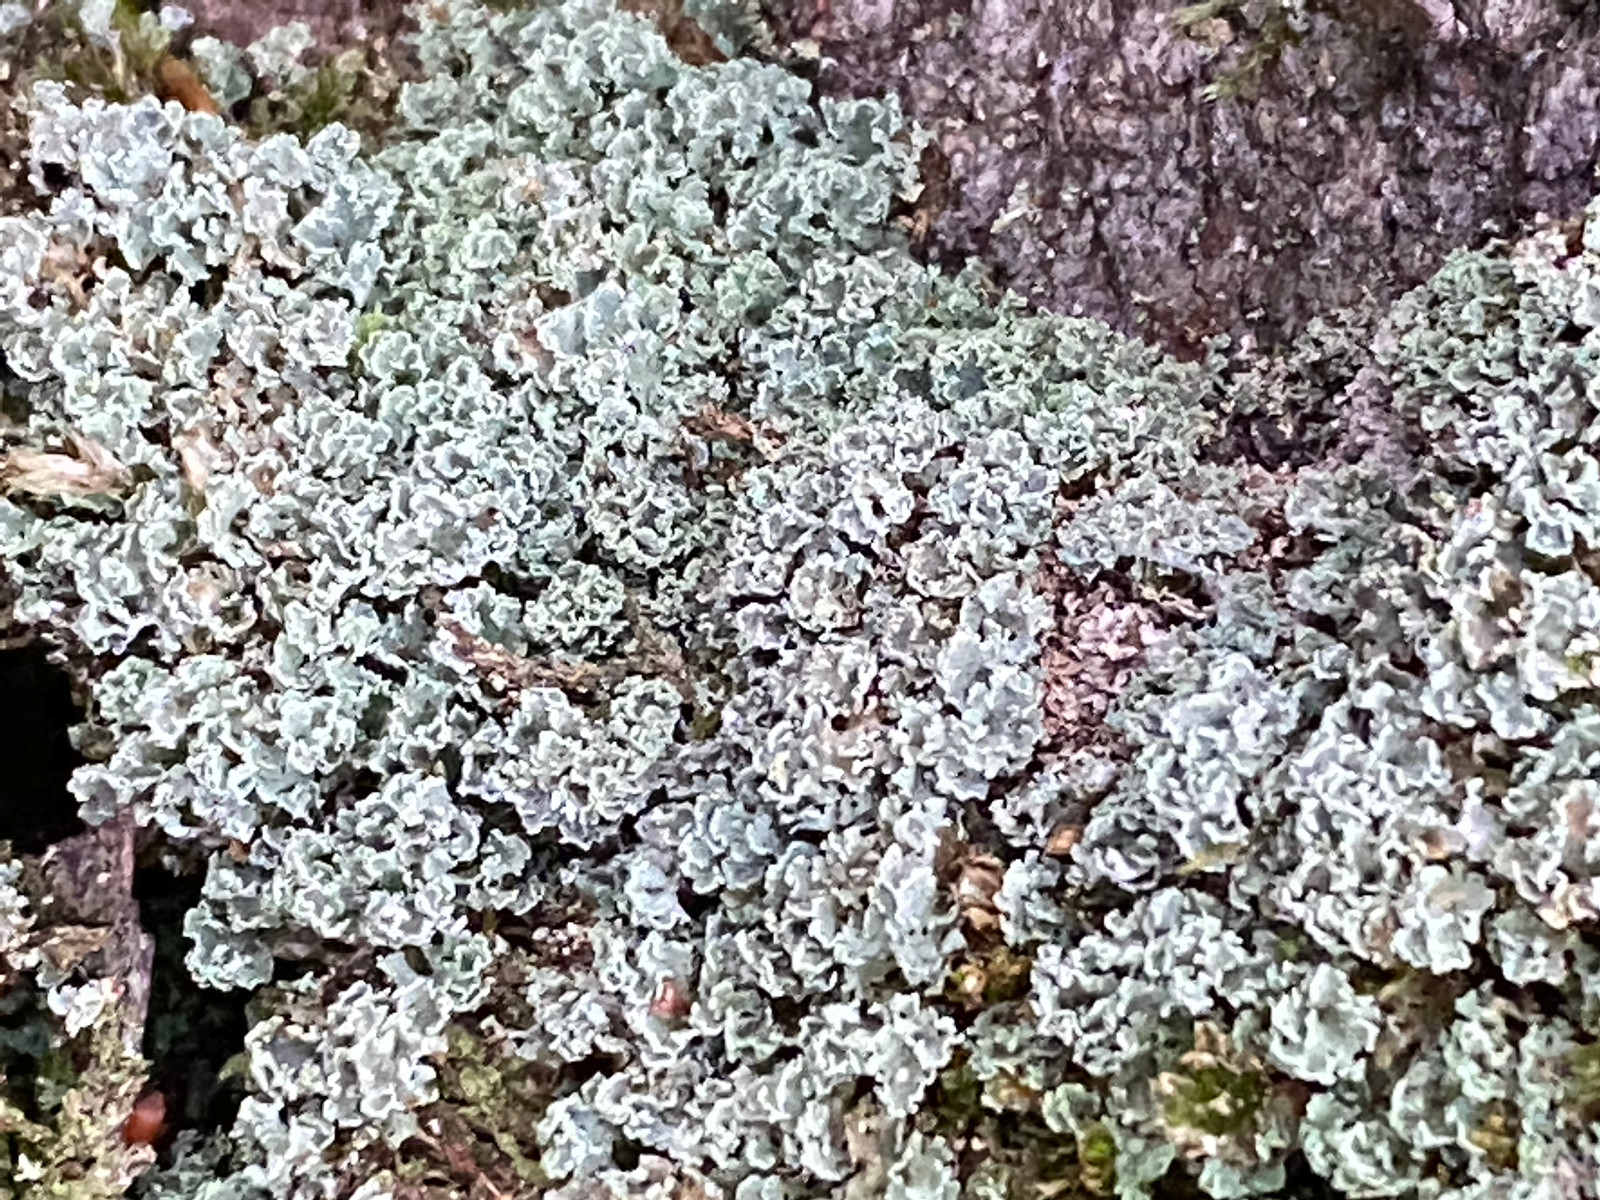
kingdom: Fungi
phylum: Ascomycota
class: Lecanoromycetes
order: Lecanorales
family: Cladoniaceae
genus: Cladonia
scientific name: Cladonia
